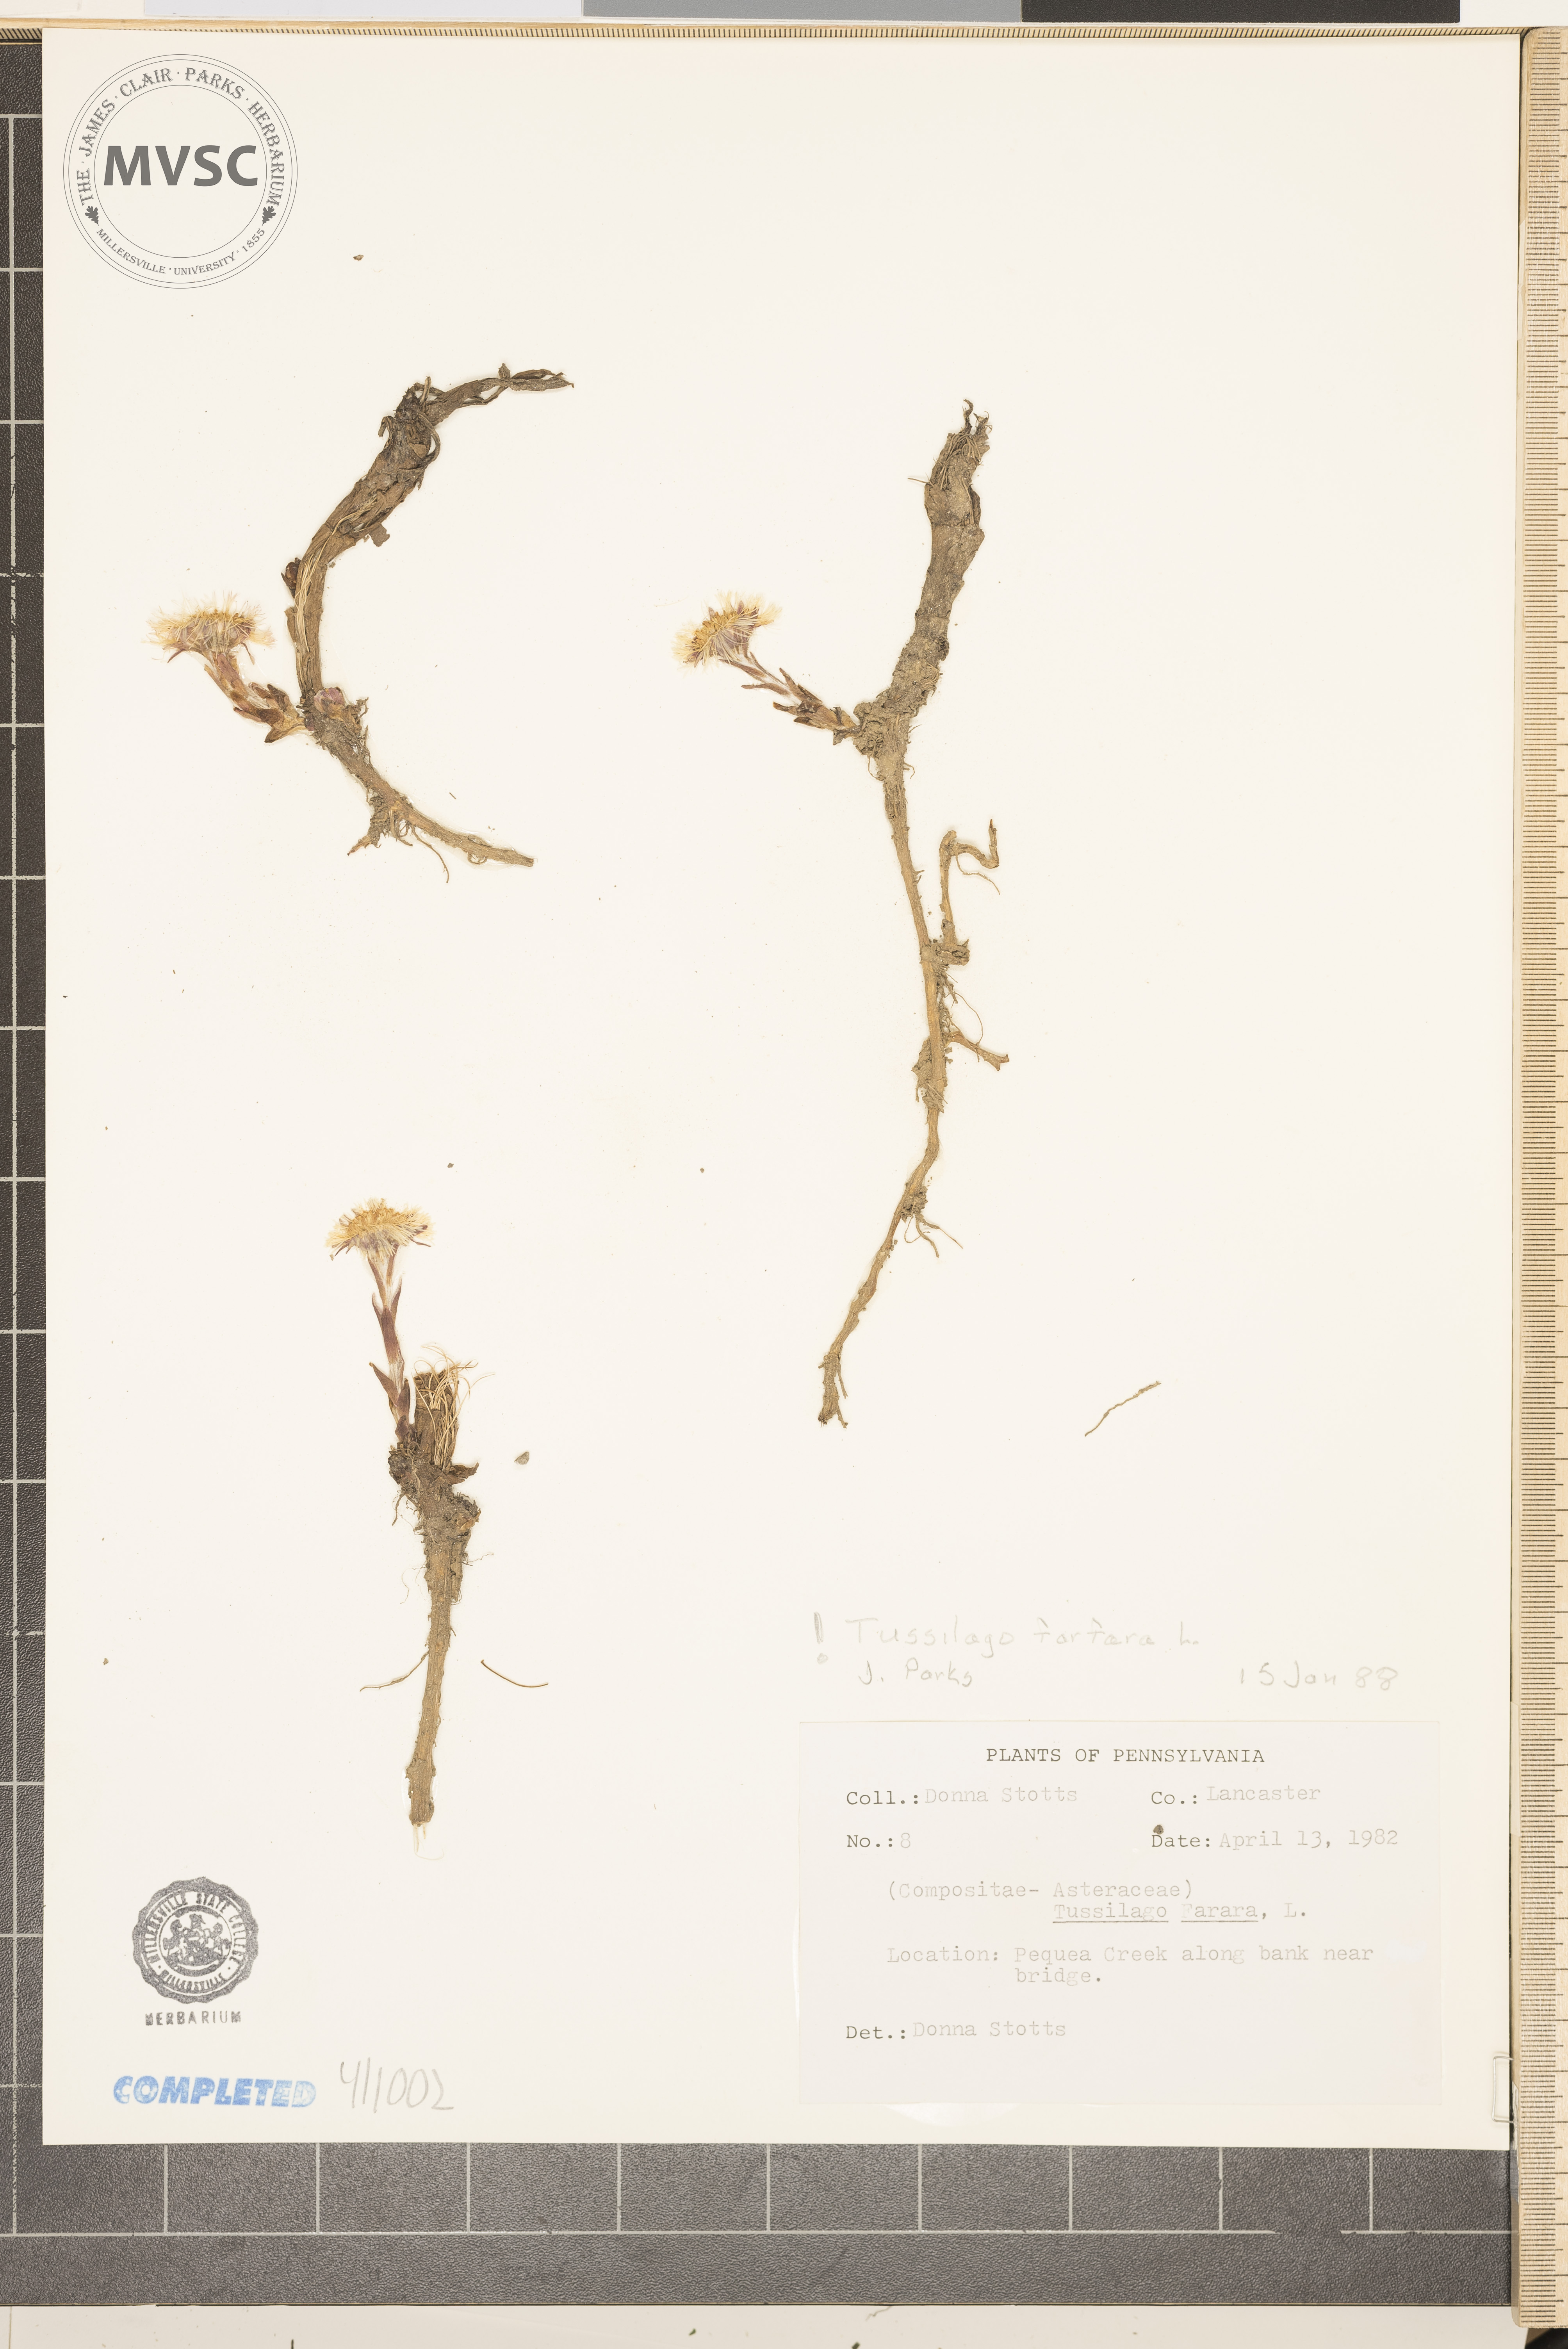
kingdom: Plantae
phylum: Tracheophyta
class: Magnoliopsida
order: Asterales
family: Asteraceae
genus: Tussilago
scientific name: Tussilago farfara
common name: Coltsfoot
